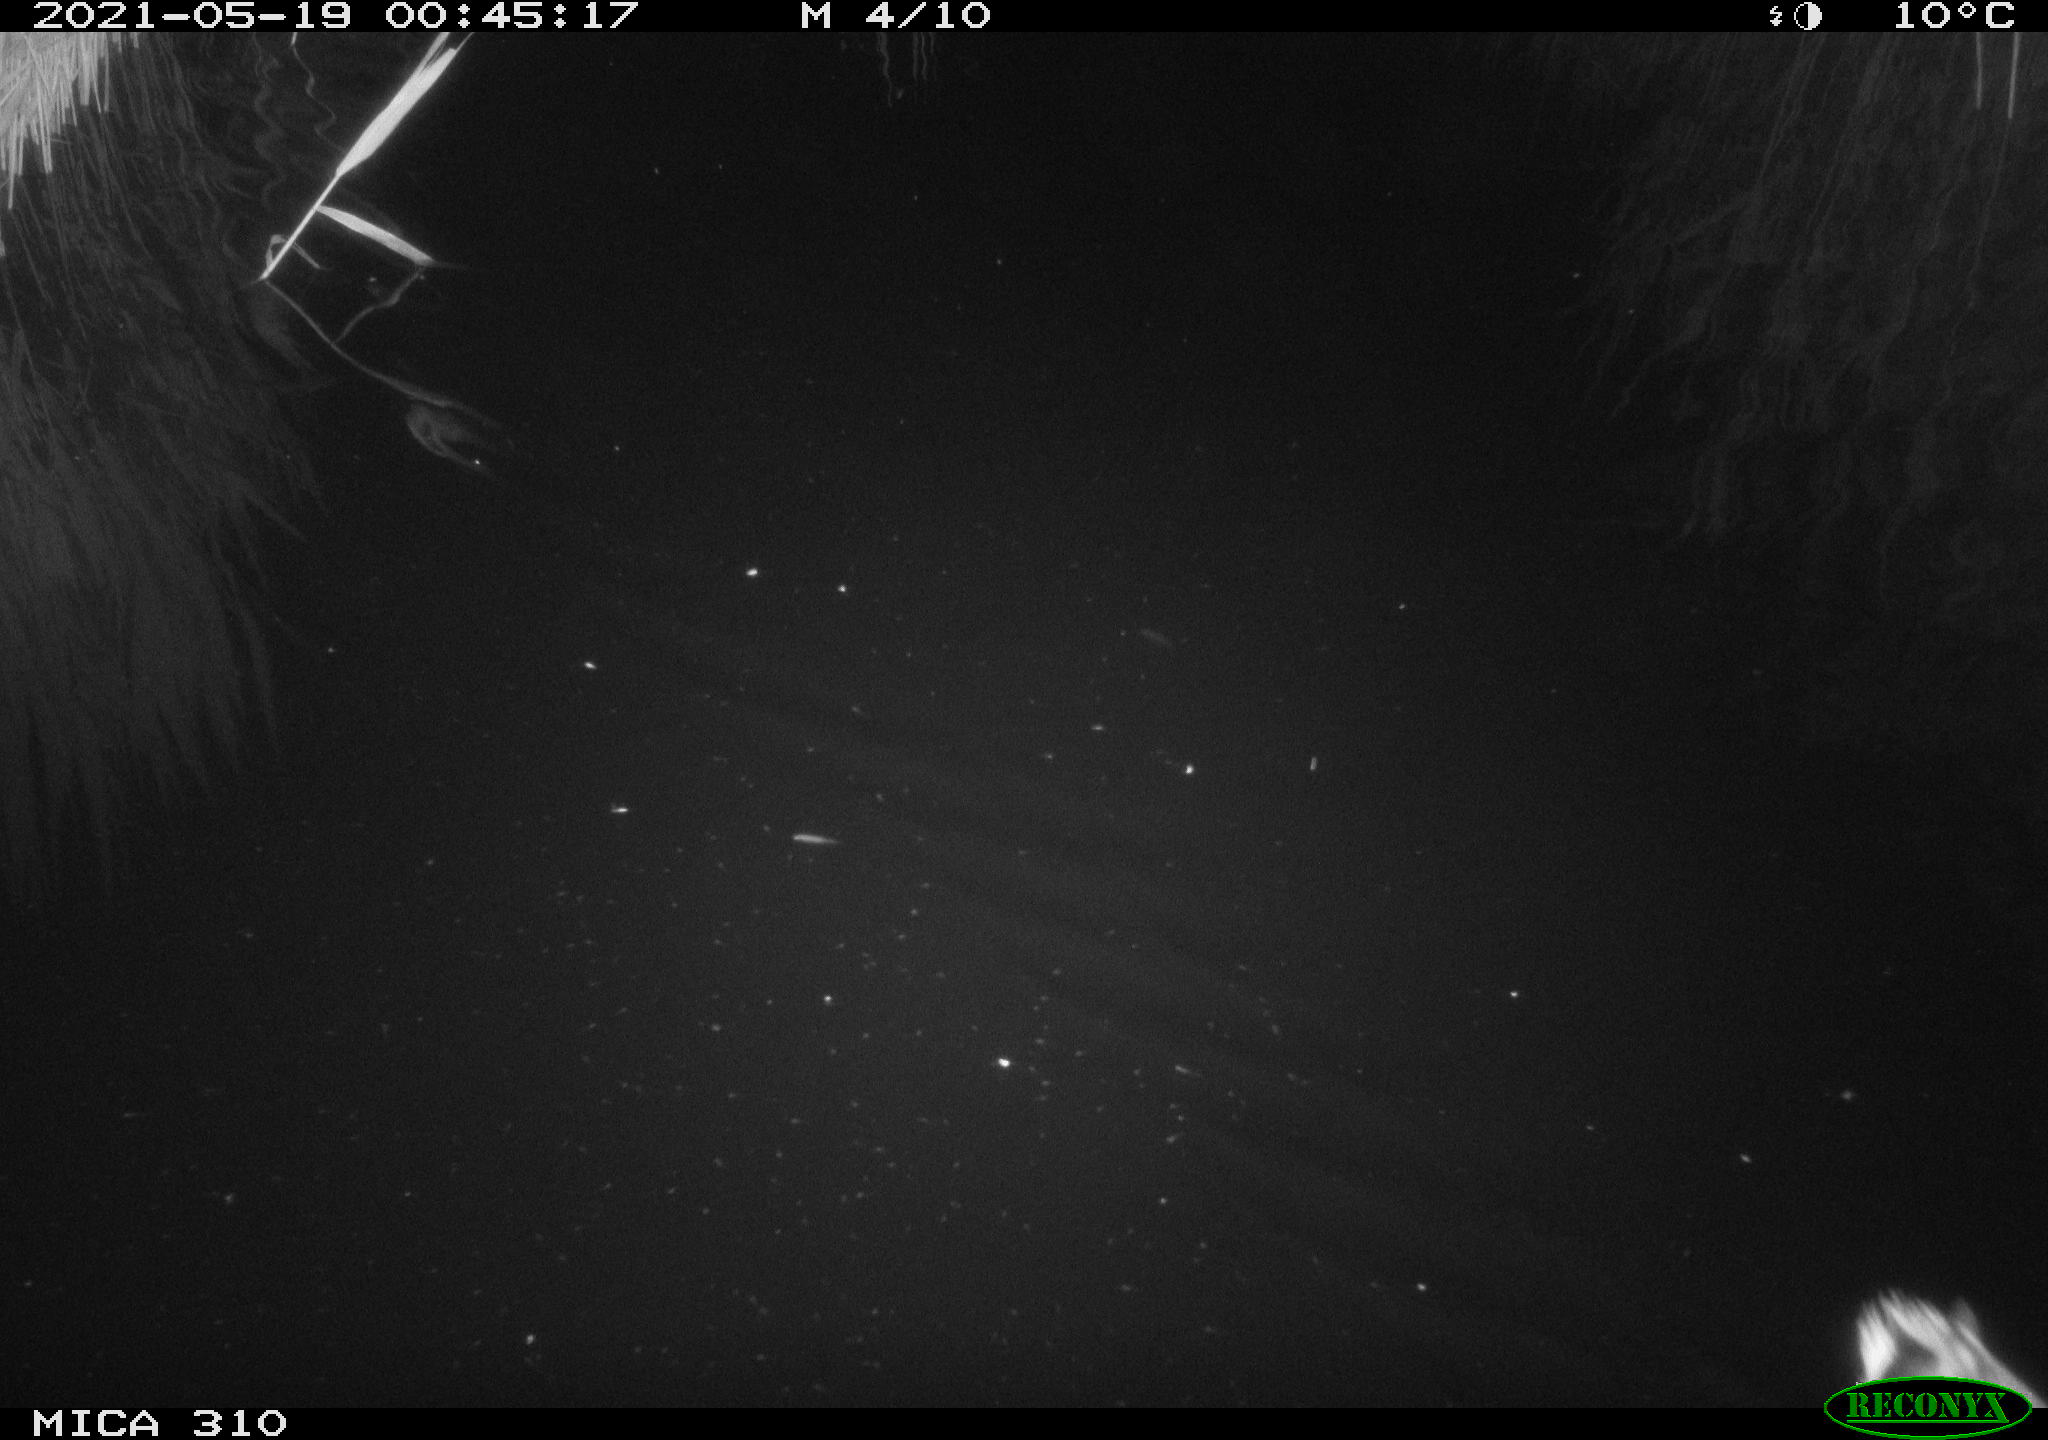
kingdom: Animalia
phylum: Chordata
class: Aves
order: Gruiformes
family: Rallidae
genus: Gallinula
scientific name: Gallinula chloropus
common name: Common moorhen
